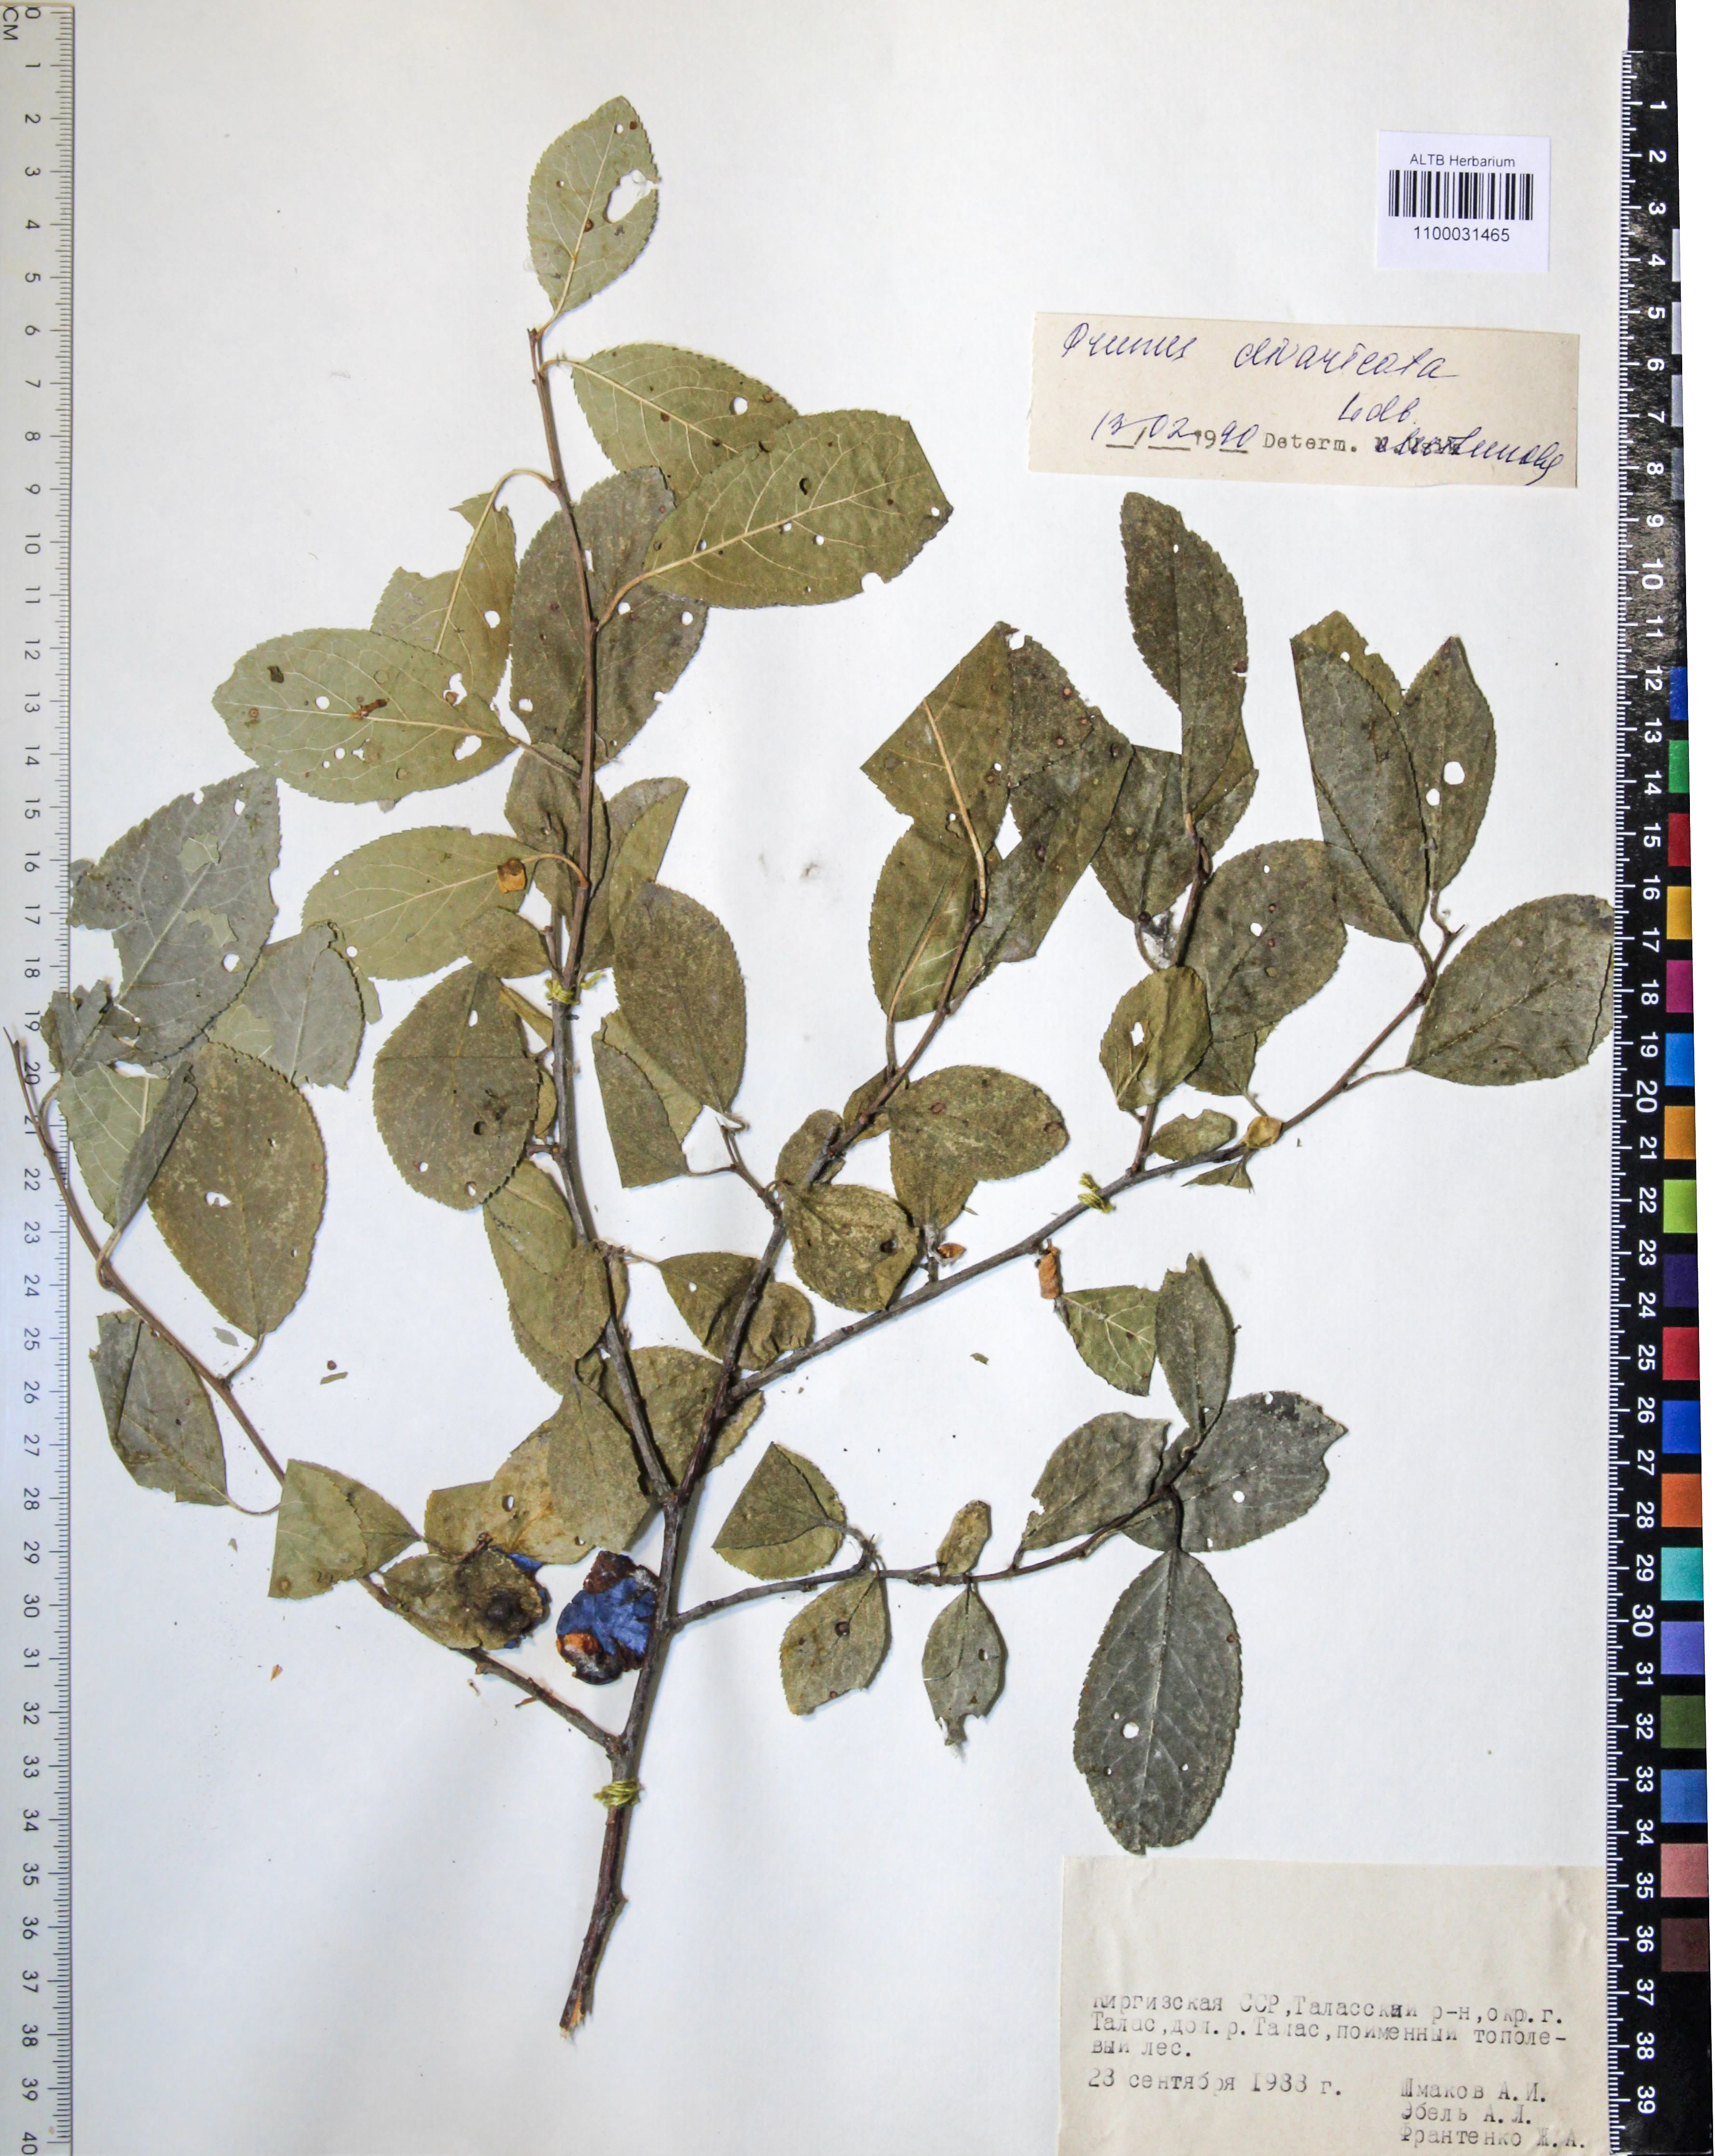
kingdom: Plantae
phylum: Tracheophyta
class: Magnoliopsida
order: Rosales
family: Rosaceae
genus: Prunus
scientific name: Prunus cerasifera
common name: Cherry plum
